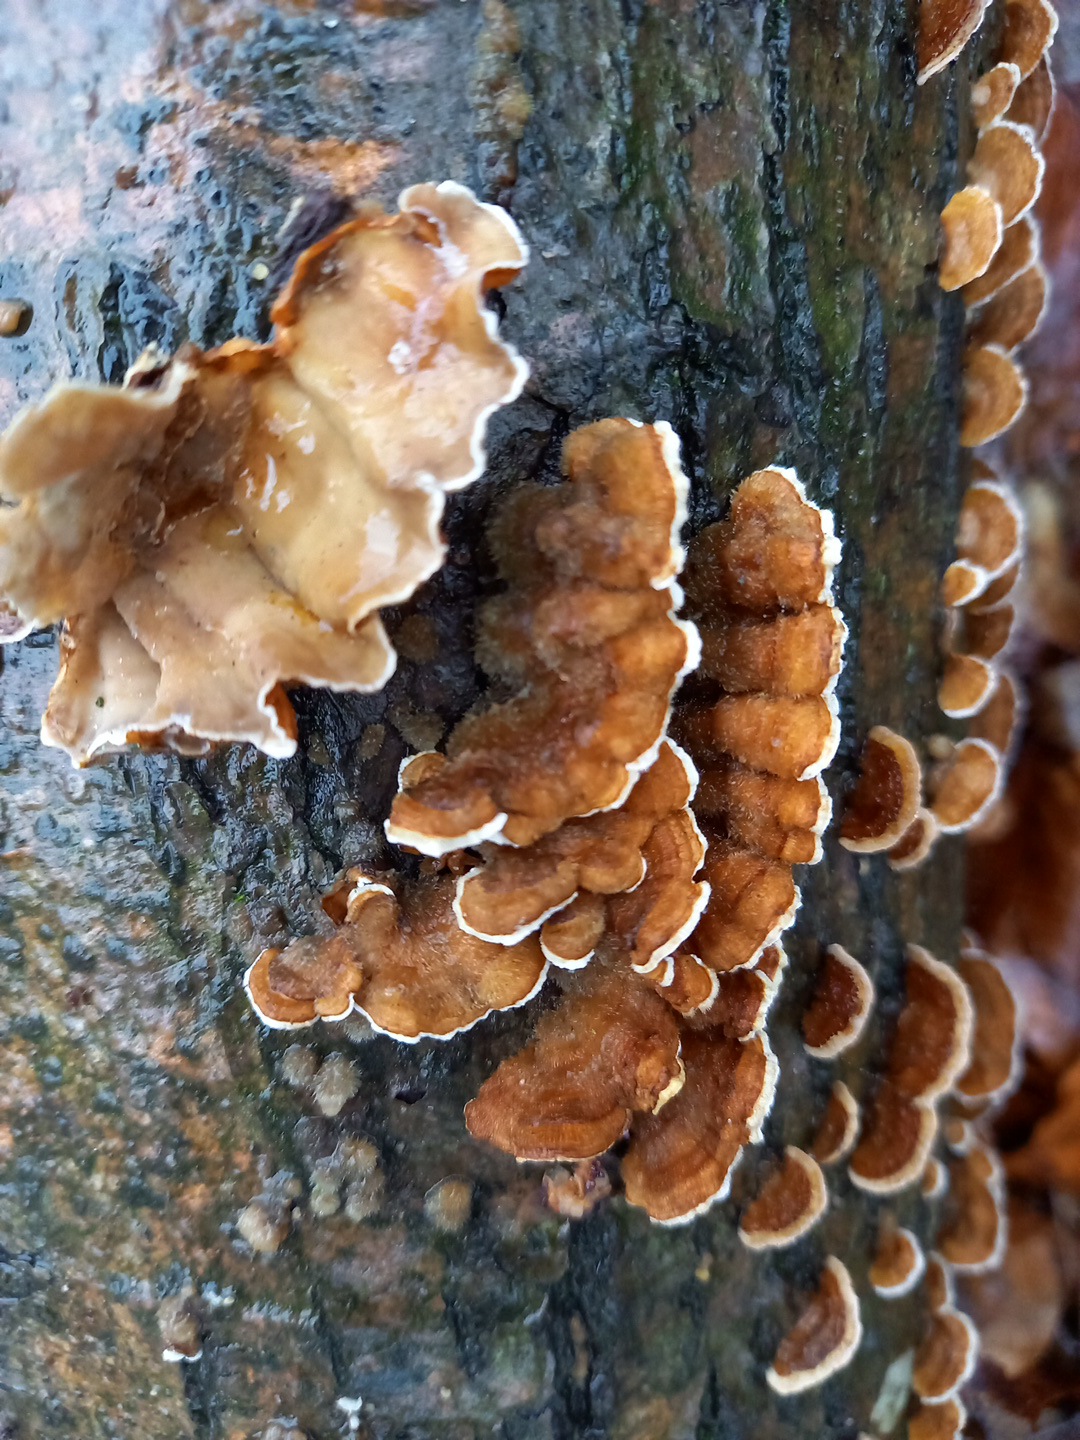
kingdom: Fungi
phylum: Basidiomycota
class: Agaricomycetes
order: Russulales
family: Stereaceae
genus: Stereum
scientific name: Stereum hirsutum
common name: håret lædersvamp
